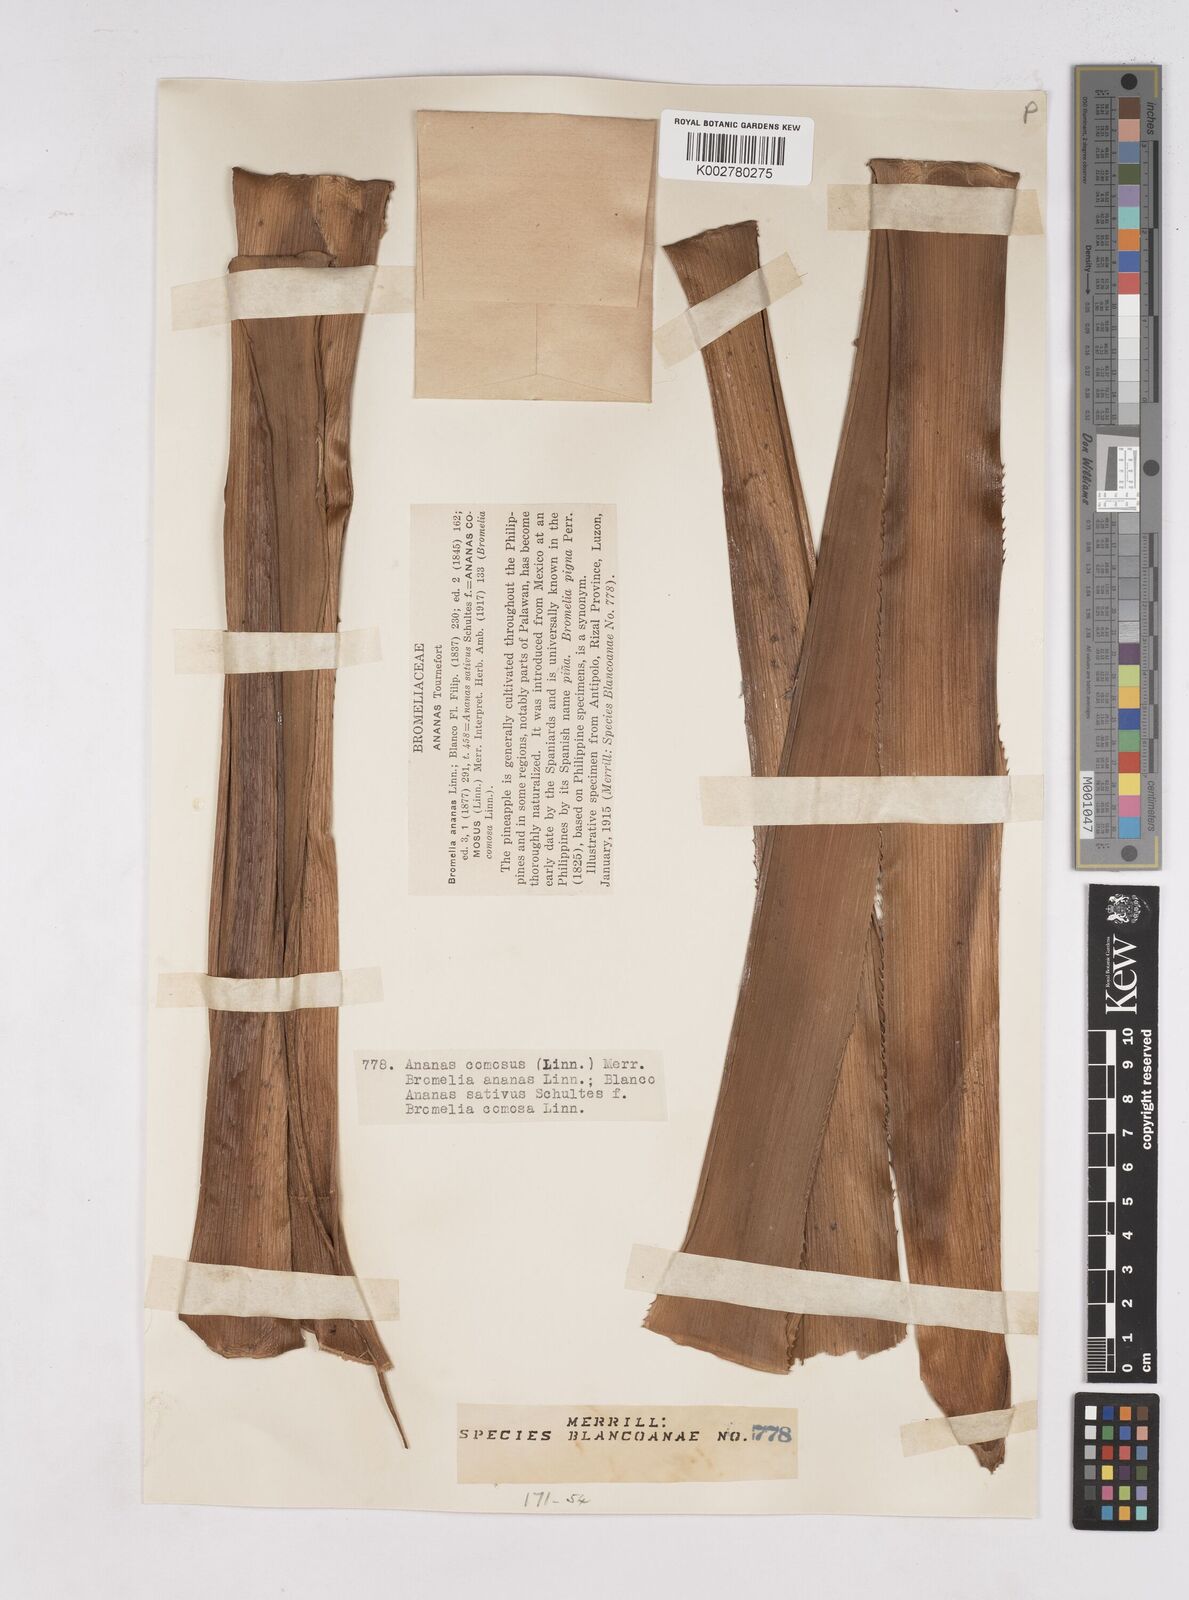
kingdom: Plantae
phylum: Tracheophyta
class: Liliopsida
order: Poales
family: Bromeliaceae
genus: Ananas
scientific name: Ananas comosus
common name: Pineapple
